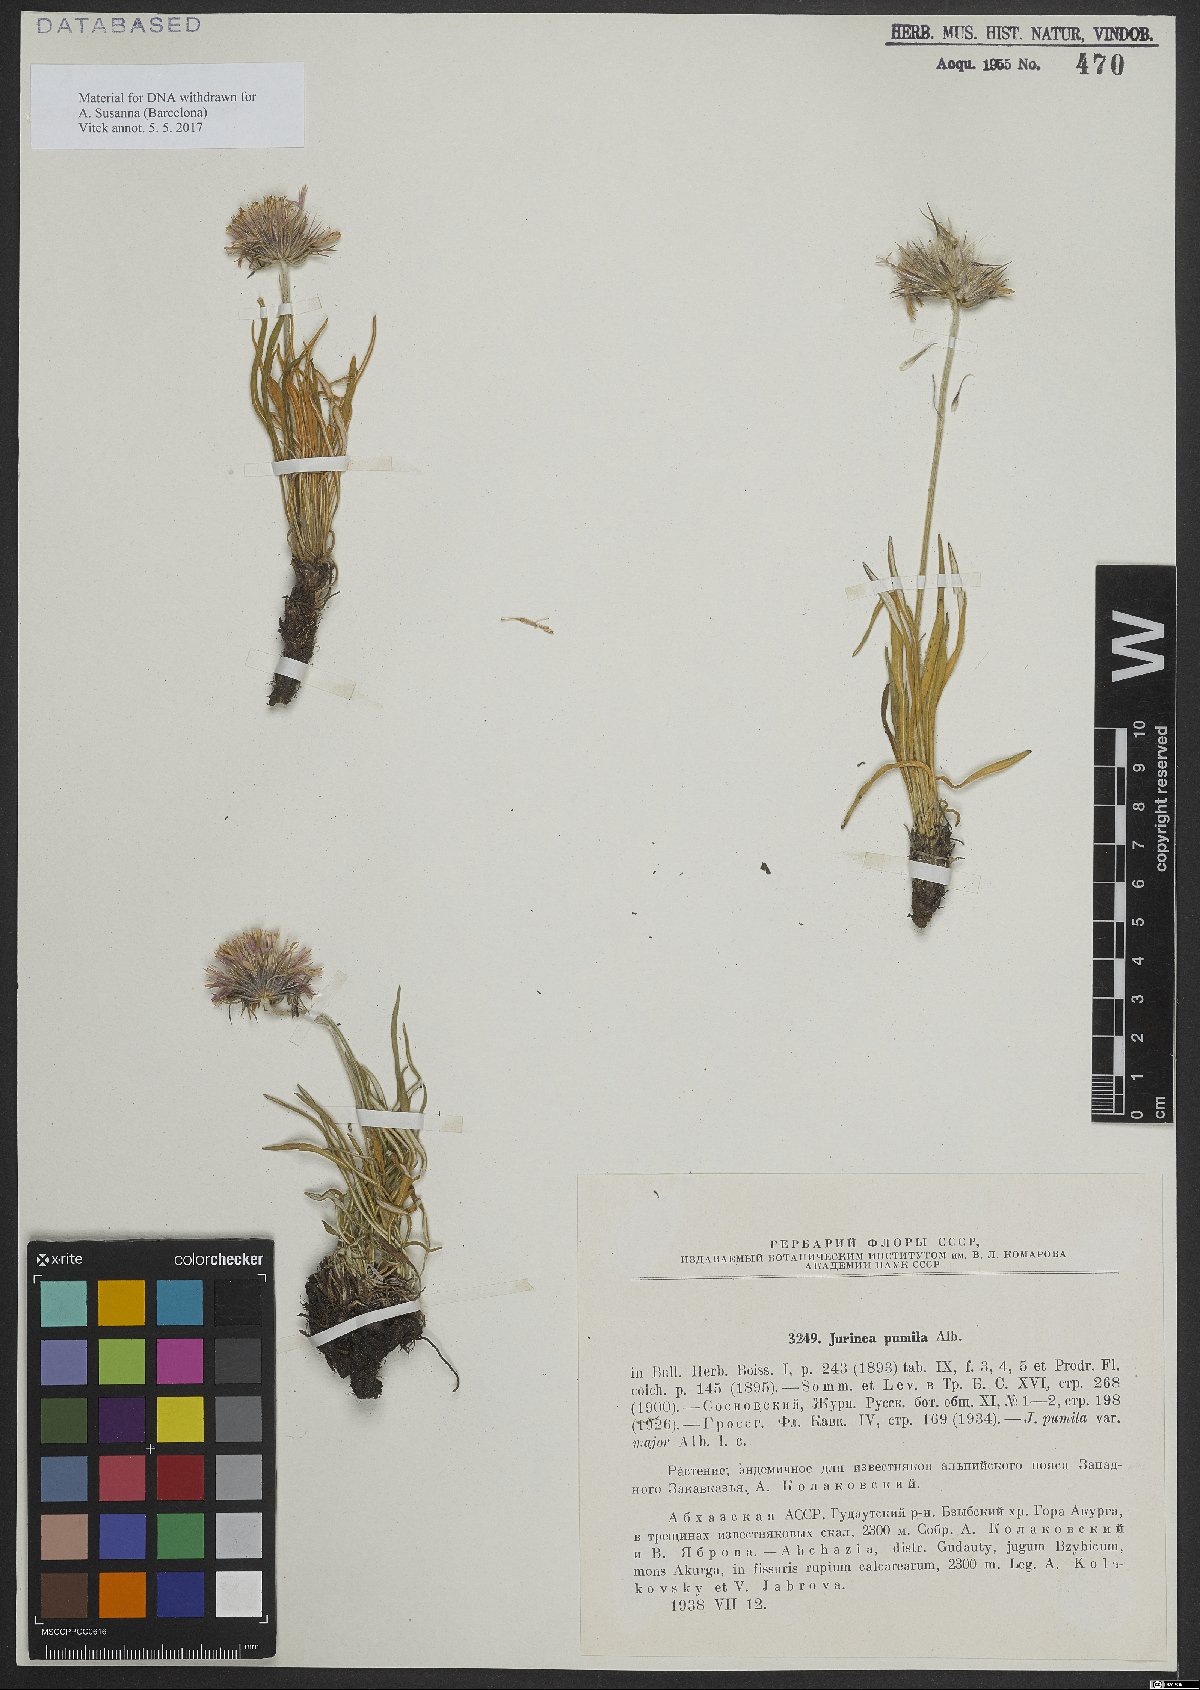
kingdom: Plantae
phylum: Tracheophyta
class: Magnoliopsida
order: Asterales
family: Asteraceae
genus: Jurinea
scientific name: Jurinea pumila
